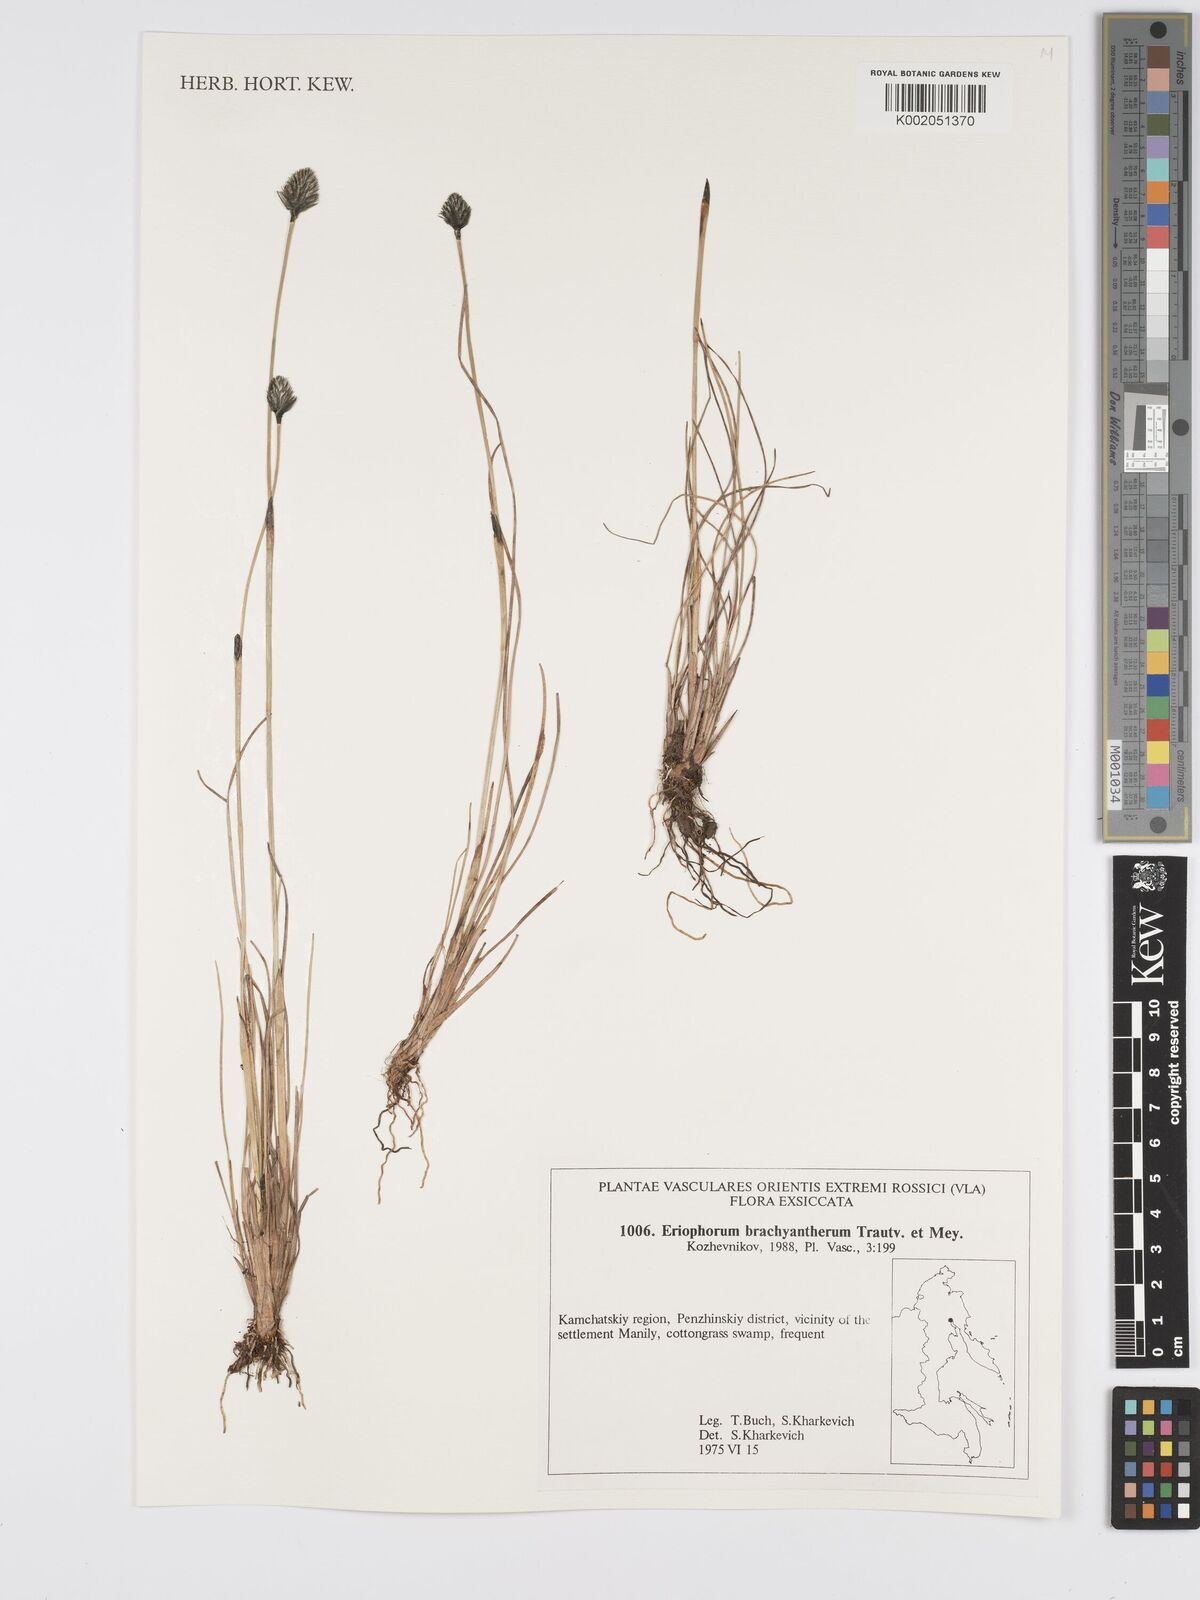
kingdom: Plantae
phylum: Tracheophyta
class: Liliopsida
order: Poales
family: Cyperaceae
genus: Eriophorum
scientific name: Eriophorum brachyantherum
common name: Closed-sheathed cottongrass
